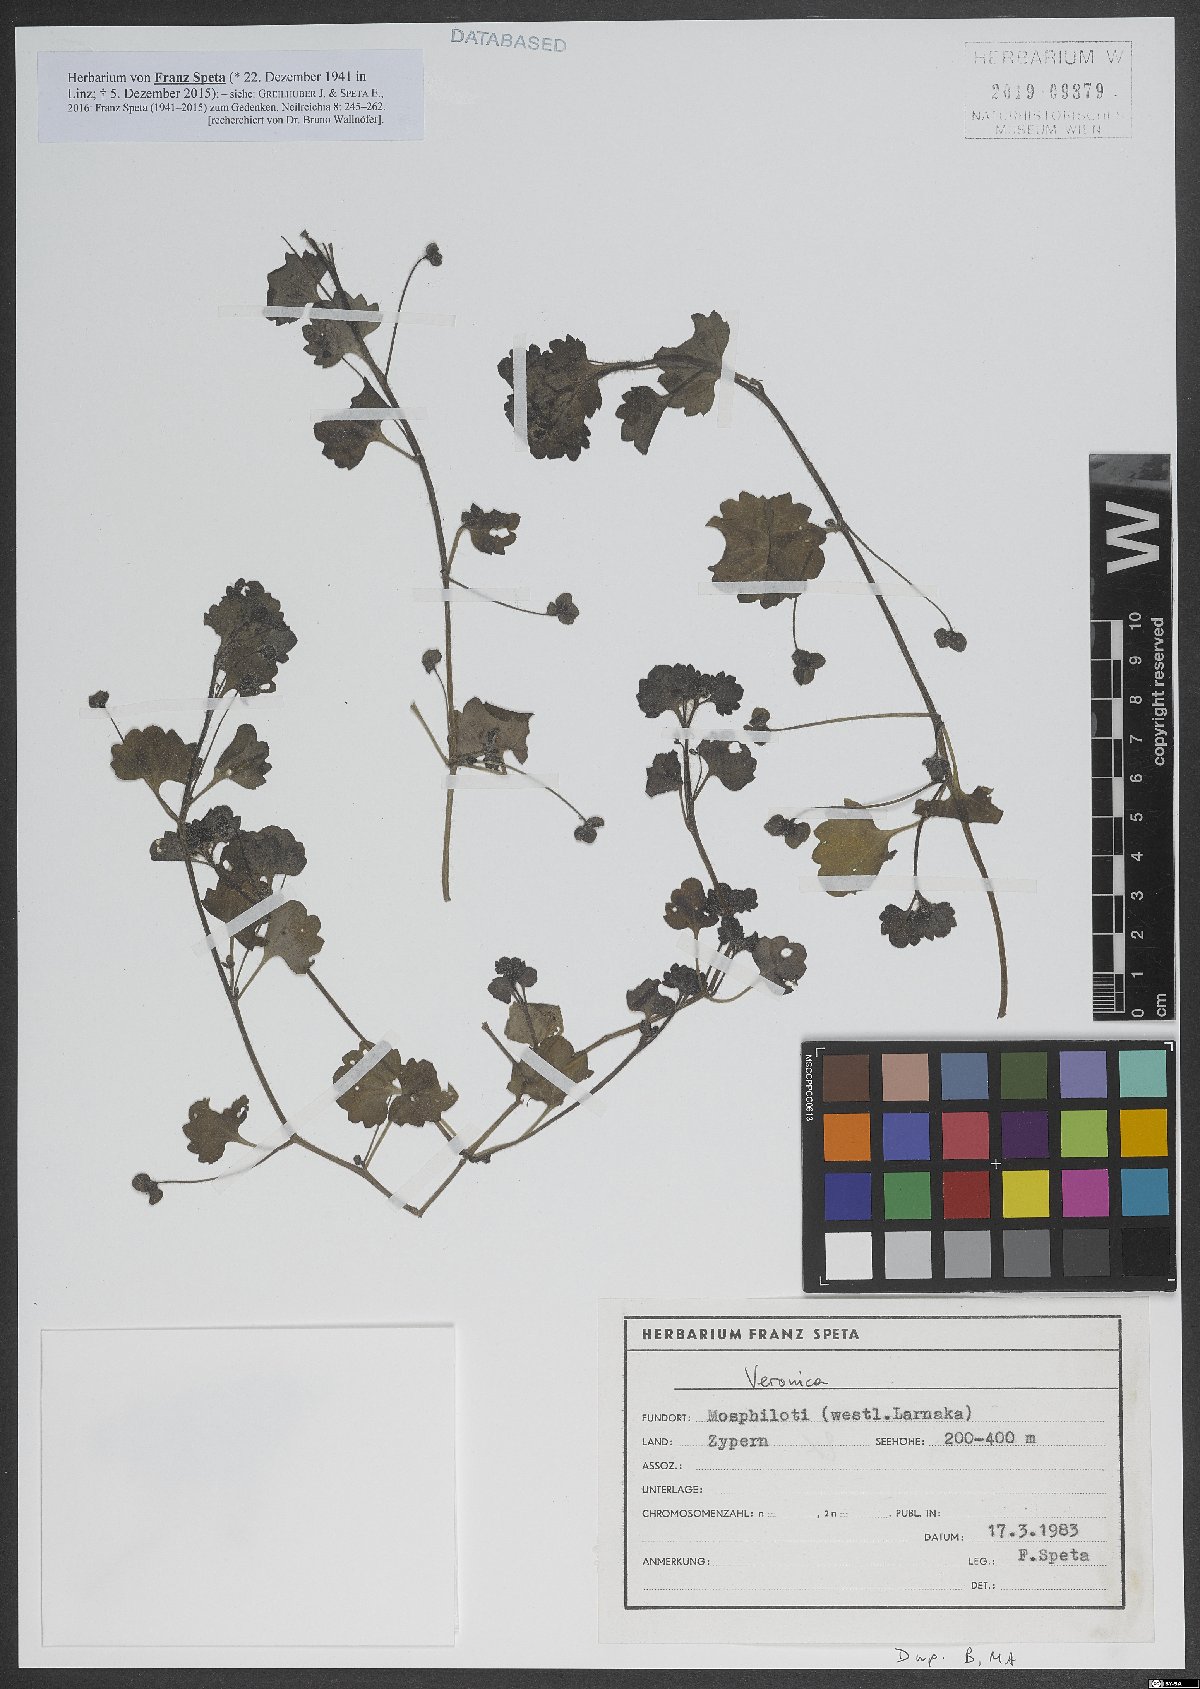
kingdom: Plantae
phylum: Tracheophyta
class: Magnoliopsida
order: Lamiales
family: Plantaginaceae
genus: Veronica
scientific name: Veronica
